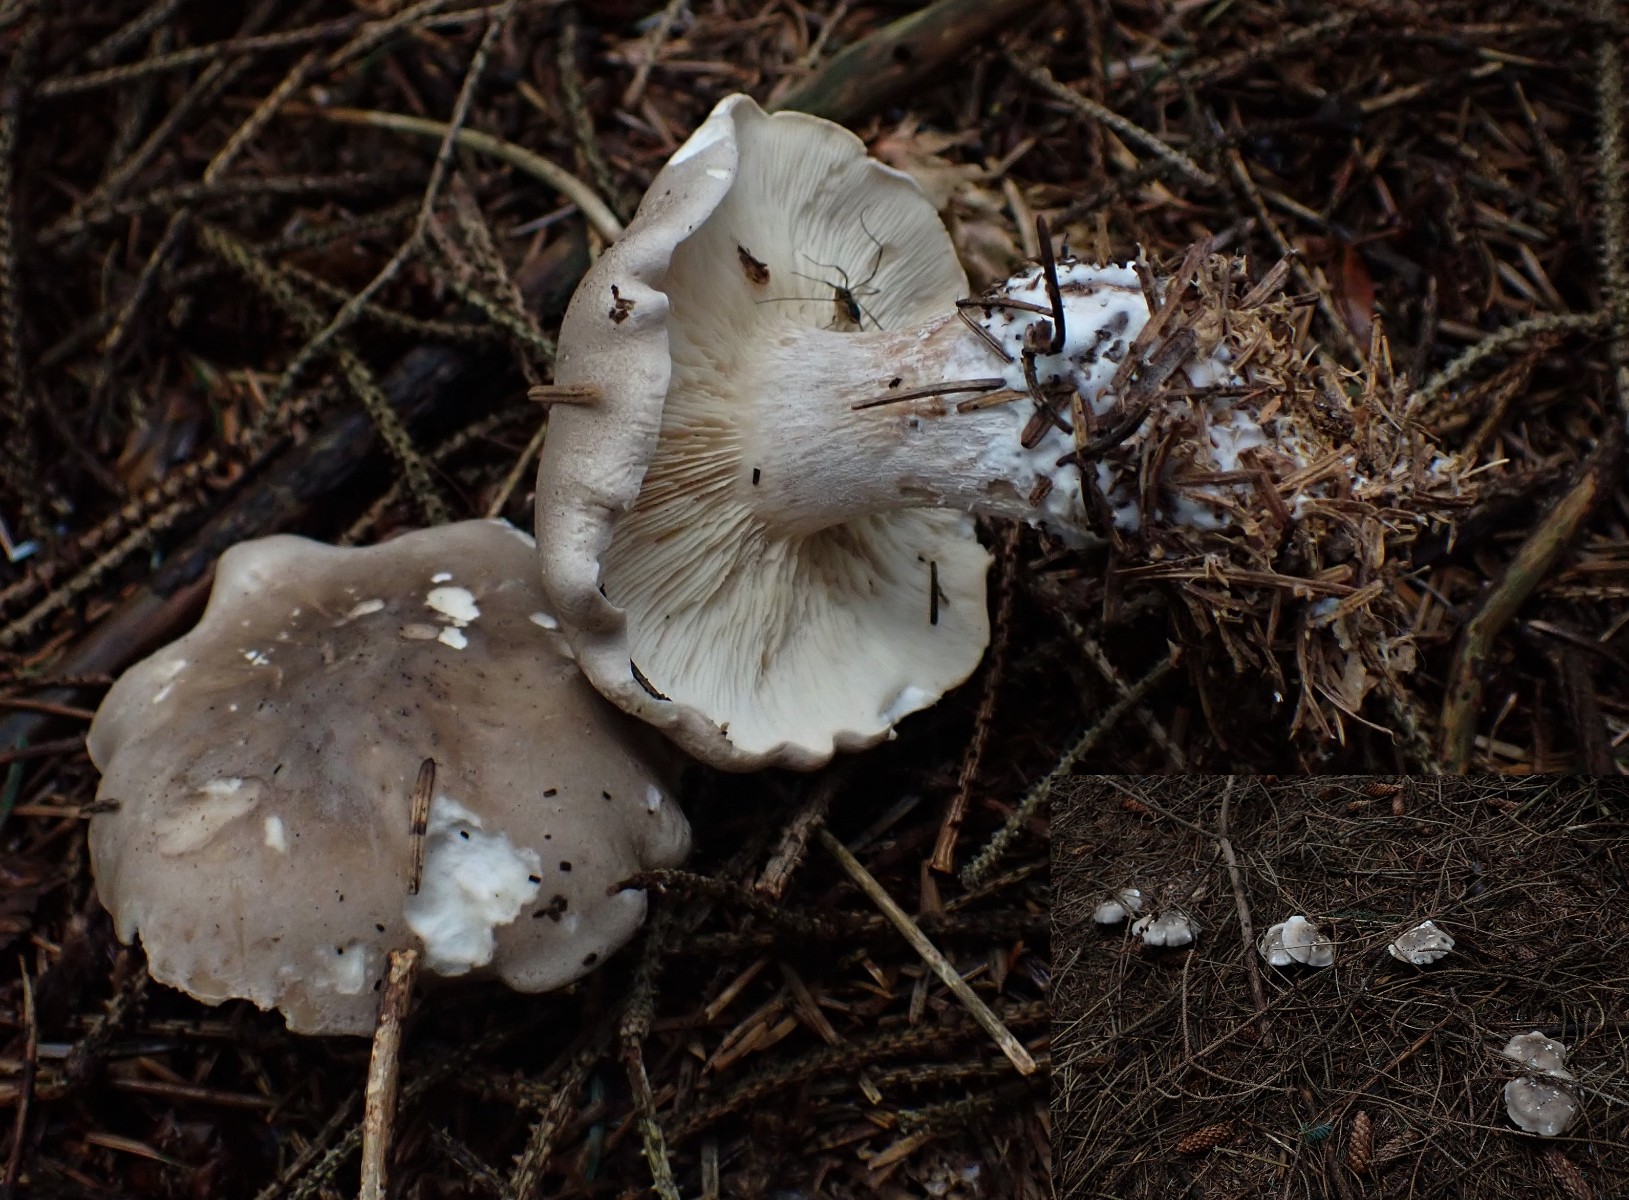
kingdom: Fungi
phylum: Basidiomycota
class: Agaricomycetes
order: Agaricales
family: Tricholomataceae
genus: Clitocybe
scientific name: Clitocybe nebularis
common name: tåge-tragthat
